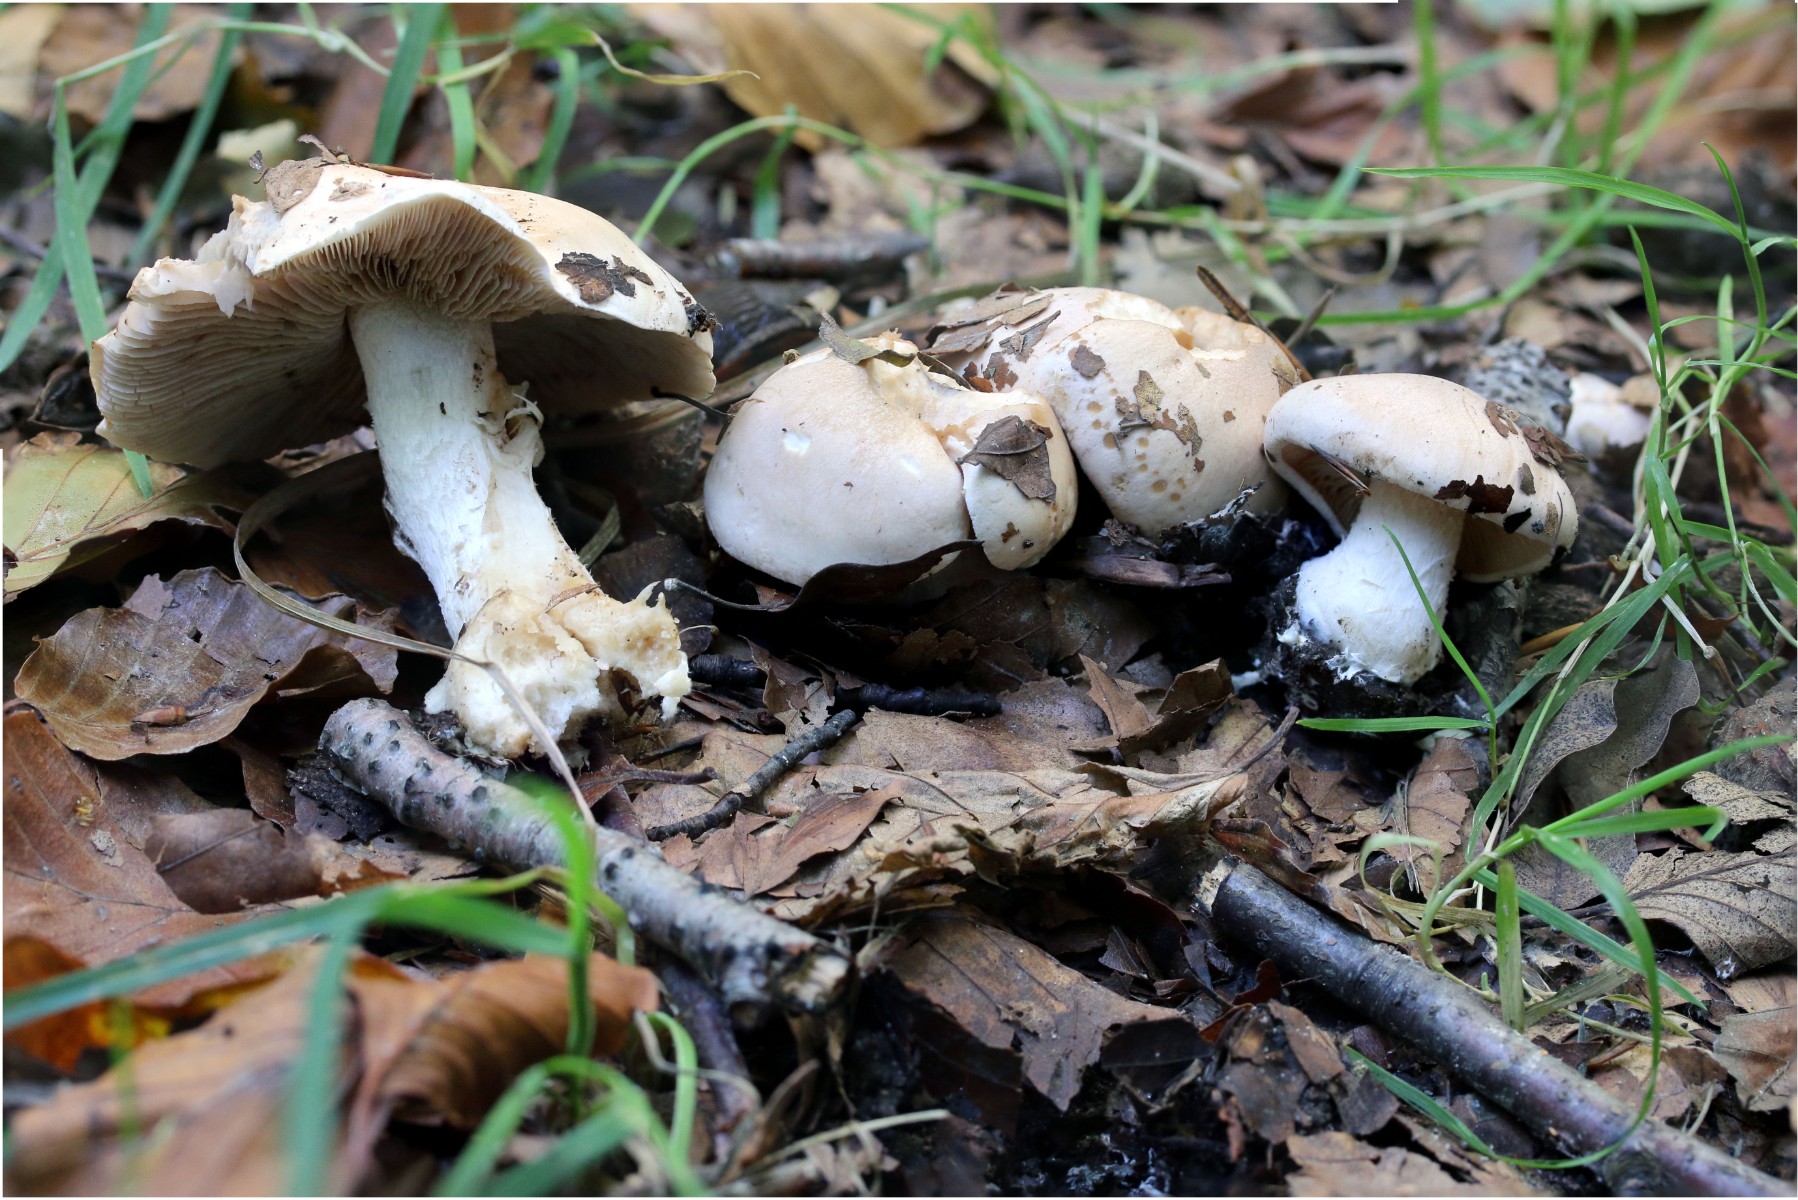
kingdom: Fungi
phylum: Basidiomycota
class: Agaricomycetes
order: Agaricales
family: Hymenogastraceae
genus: Hebeloma
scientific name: Hebeloma sinapizans
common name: ræddike-tåreblad
